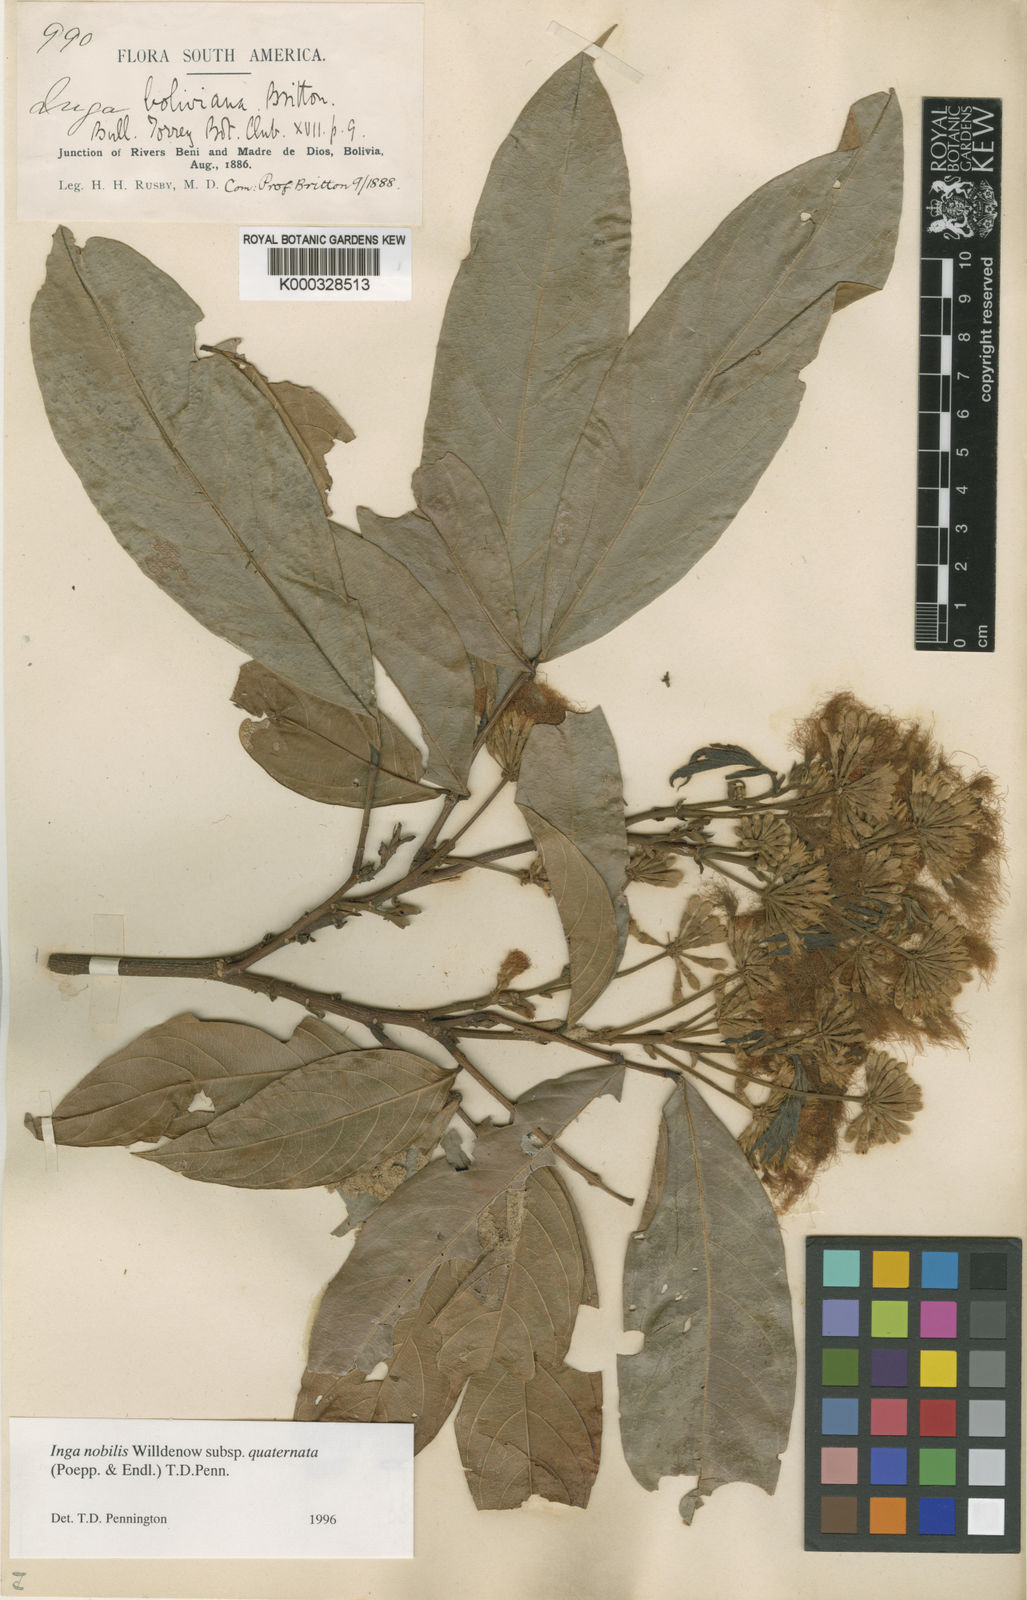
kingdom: Plantae
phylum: Tracheophyta
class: Magnoliopsida
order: Fabales
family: Fabaceae
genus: Inga
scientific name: Inga nobilis
